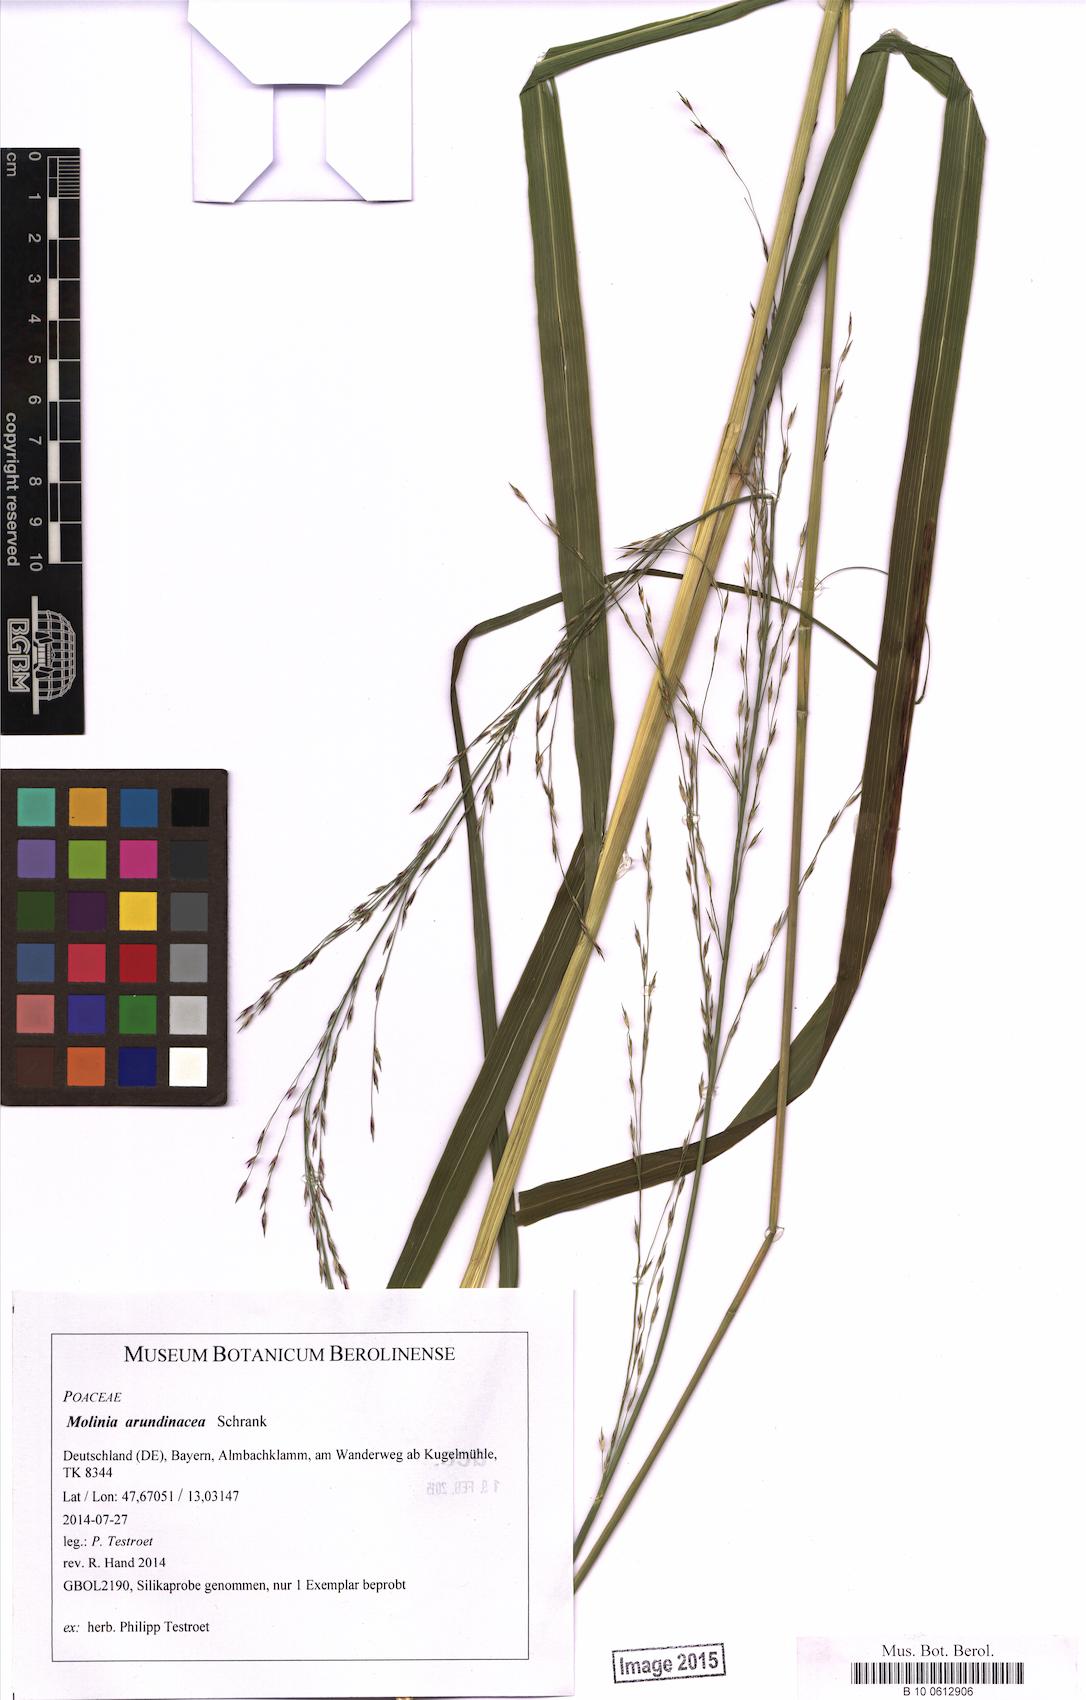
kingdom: Plantae
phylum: Tracheophyta
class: Liliopsida
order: Poales
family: Poaceae
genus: Molinia
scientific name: Molinia arundinacea
